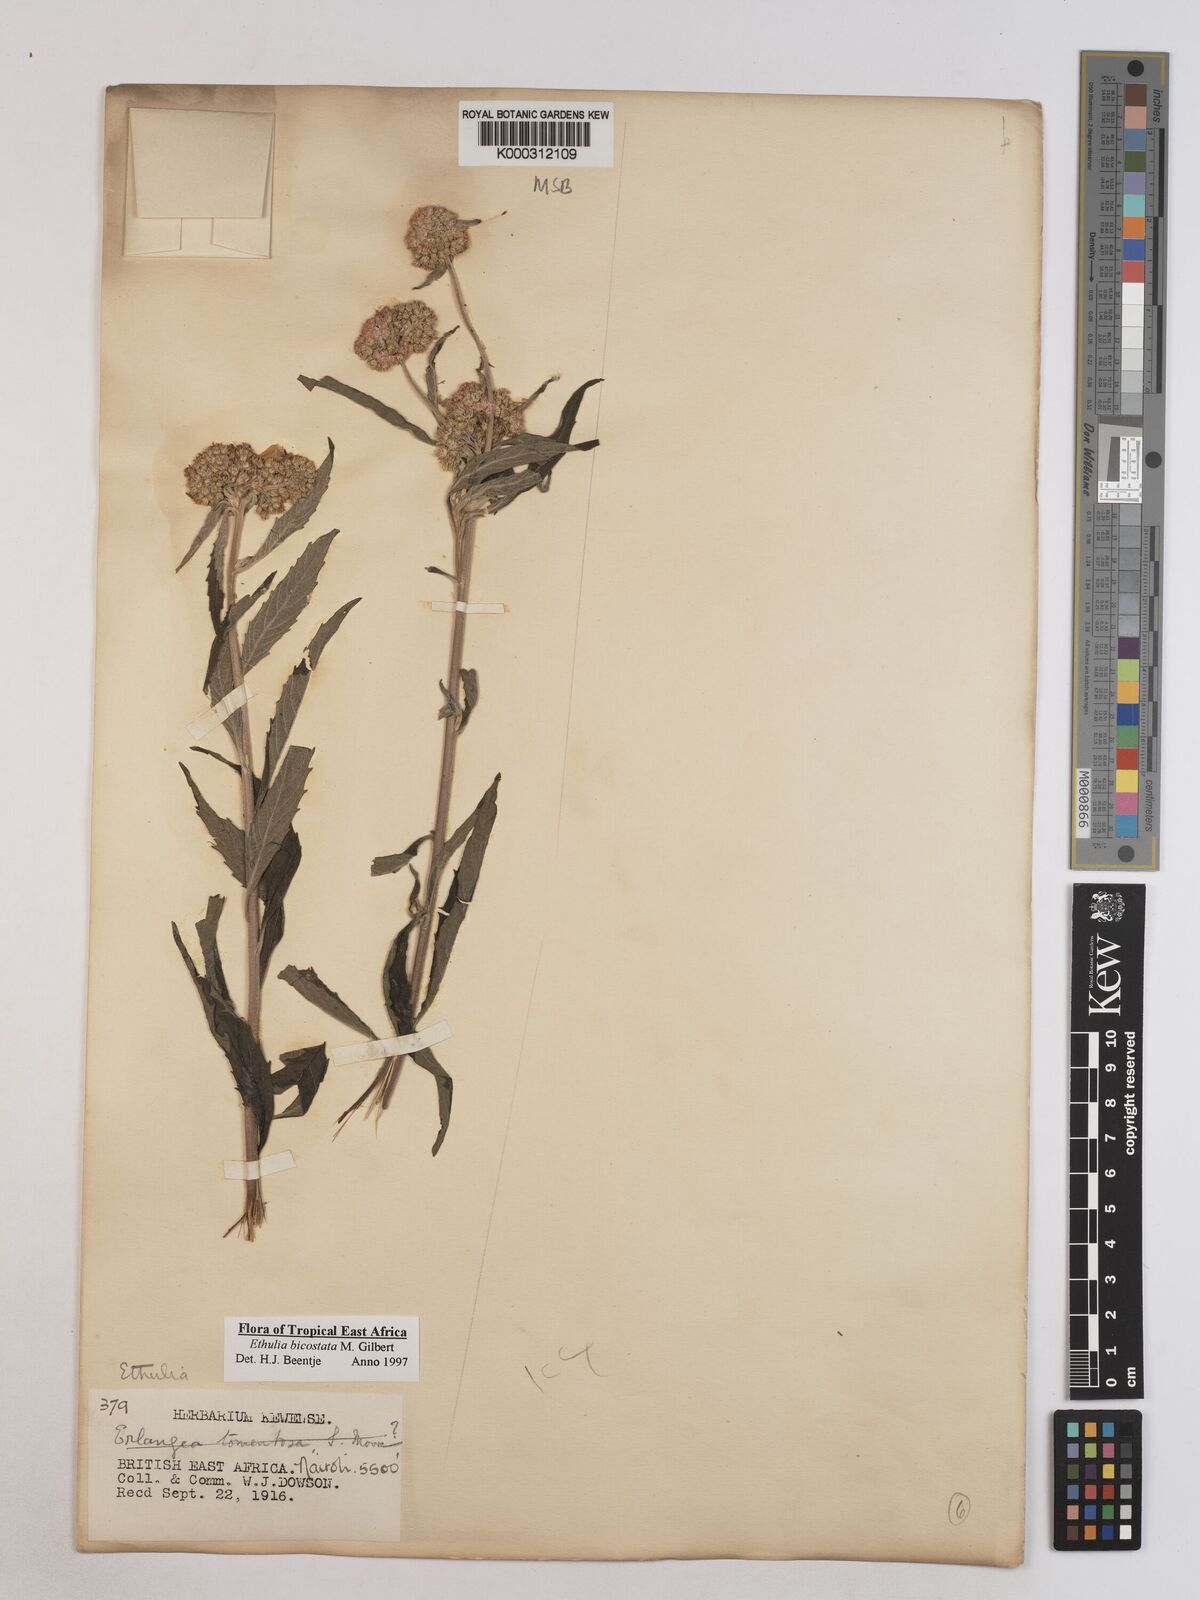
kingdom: Plantae
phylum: Tracheophyta
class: Magnoliopsida
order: Asterales
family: Asteraceae
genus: Ethulia
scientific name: Ethulia bicostata
